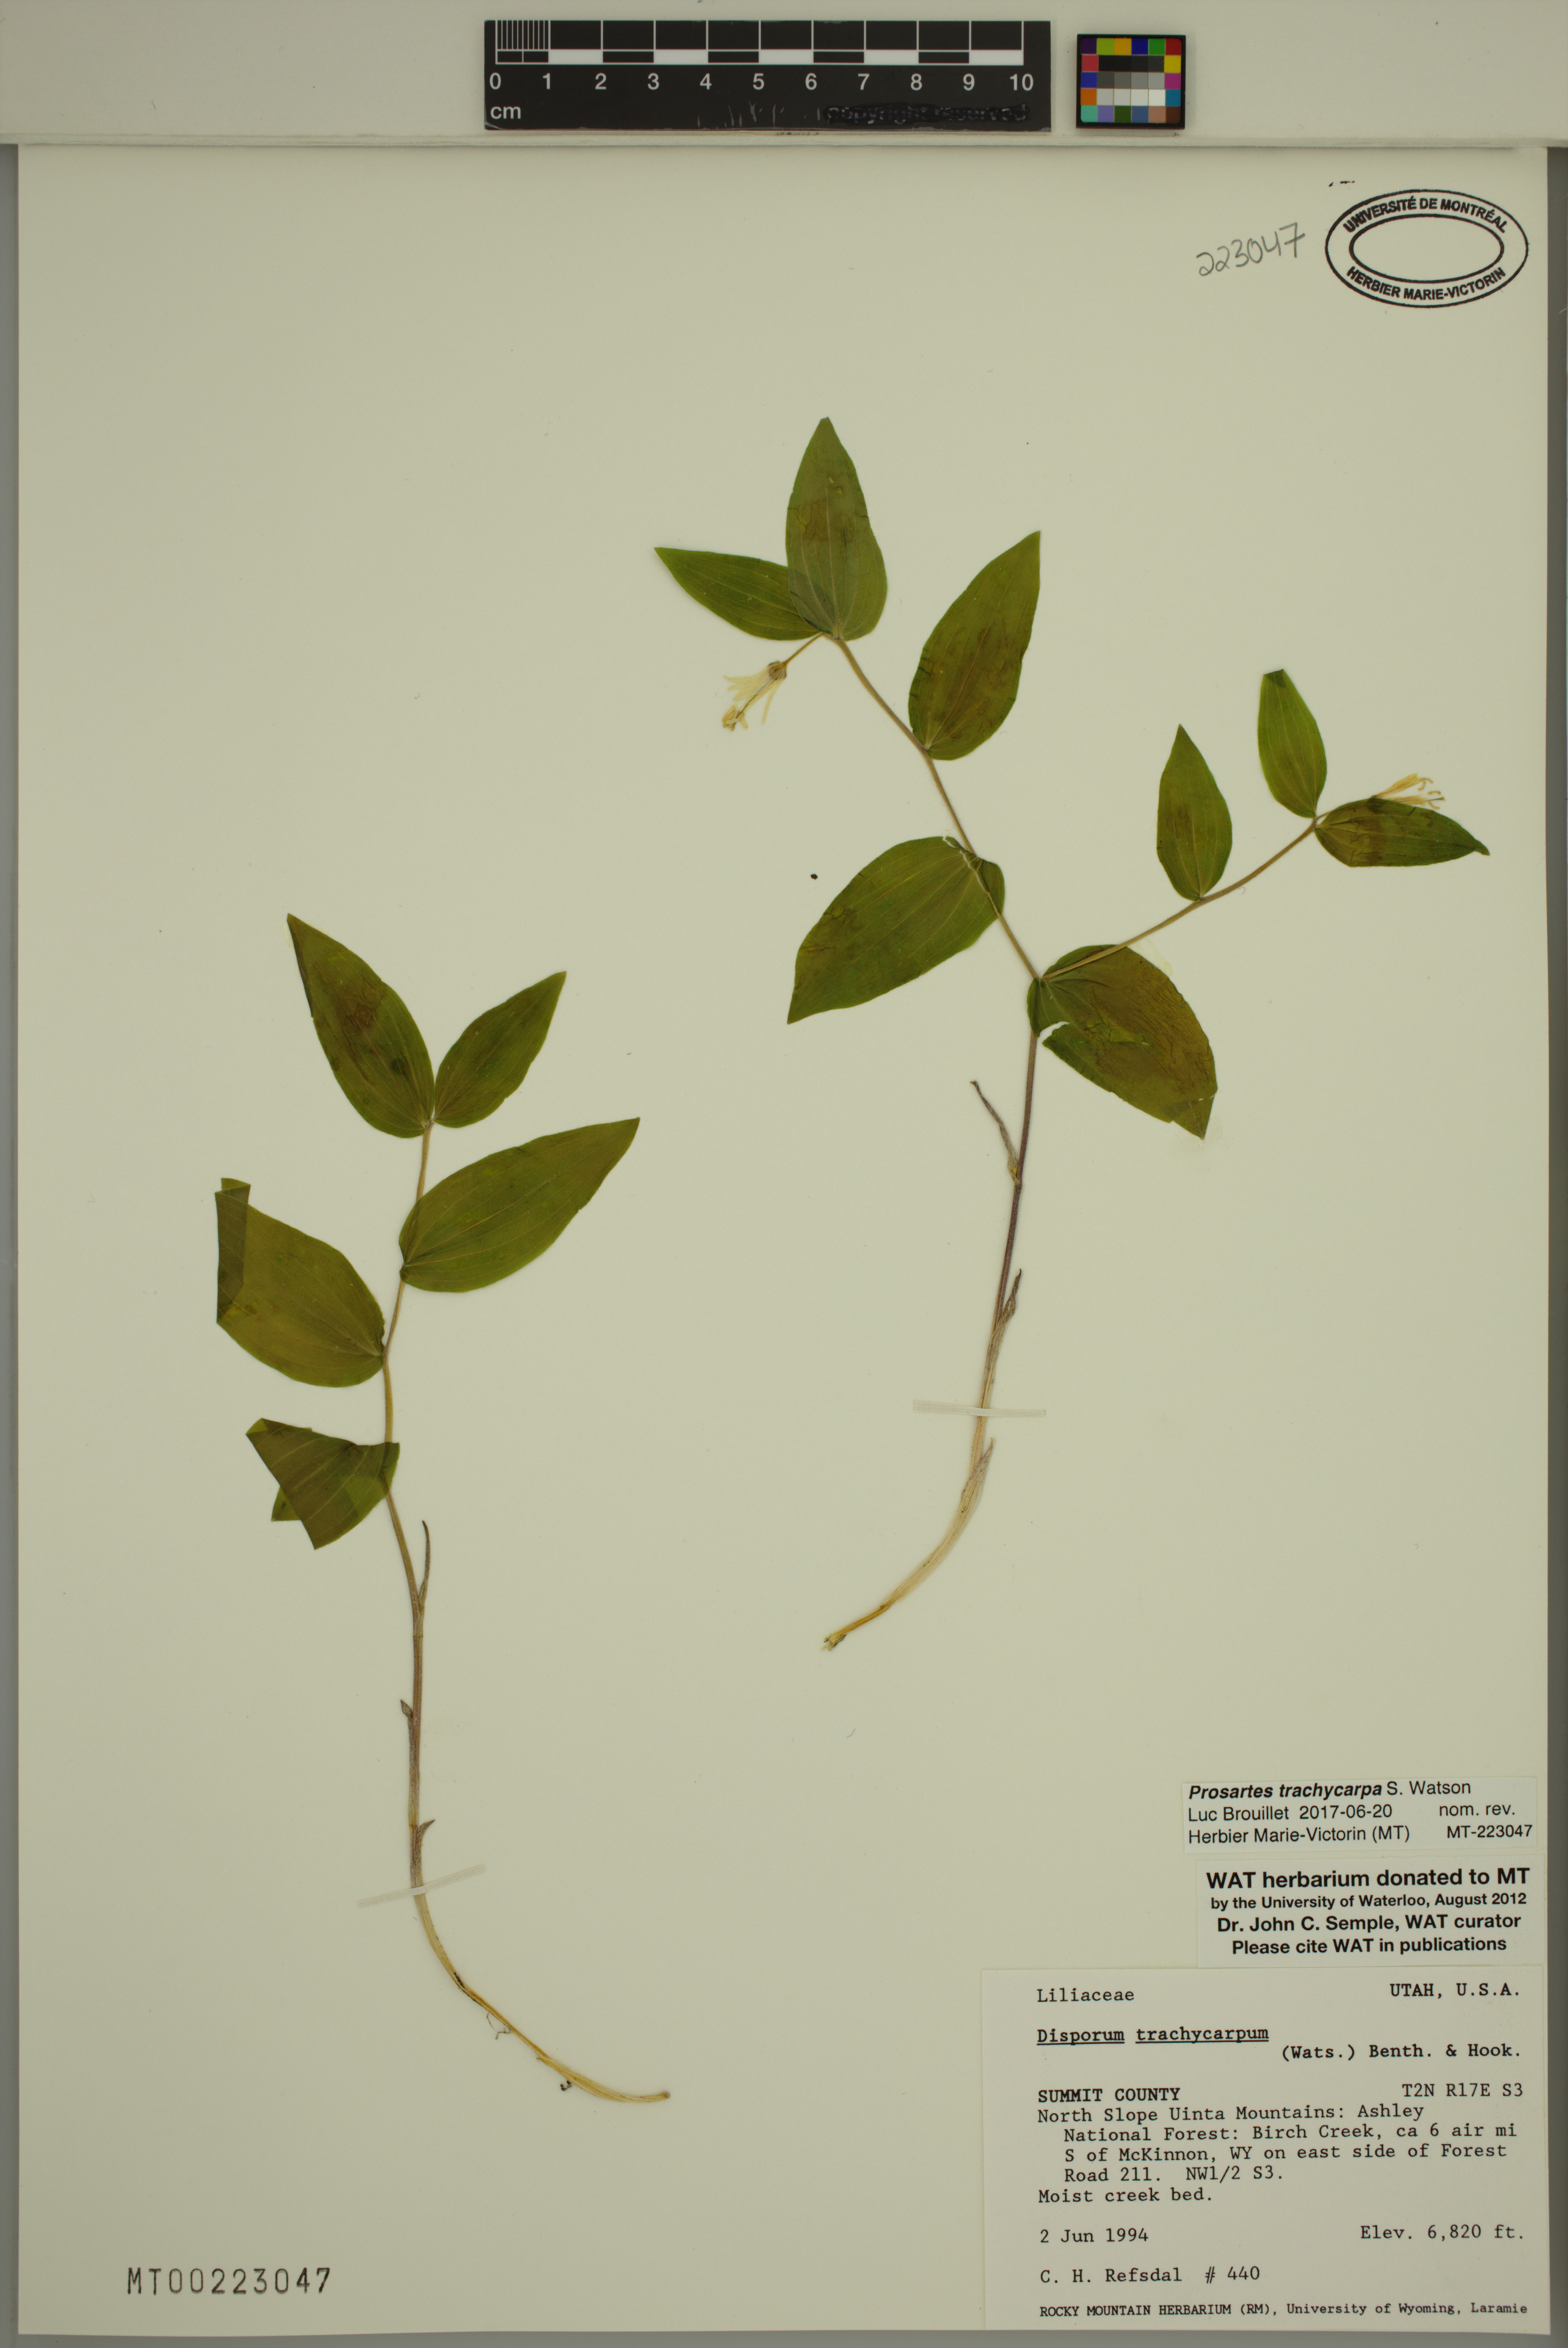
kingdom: Plantae
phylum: Tracheophyta
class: Liliopsida
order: Liliales
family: Liliaceae
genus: Prosartes
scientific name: Prosartes trachycarpa
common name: Rough-fruit fairy-bells
